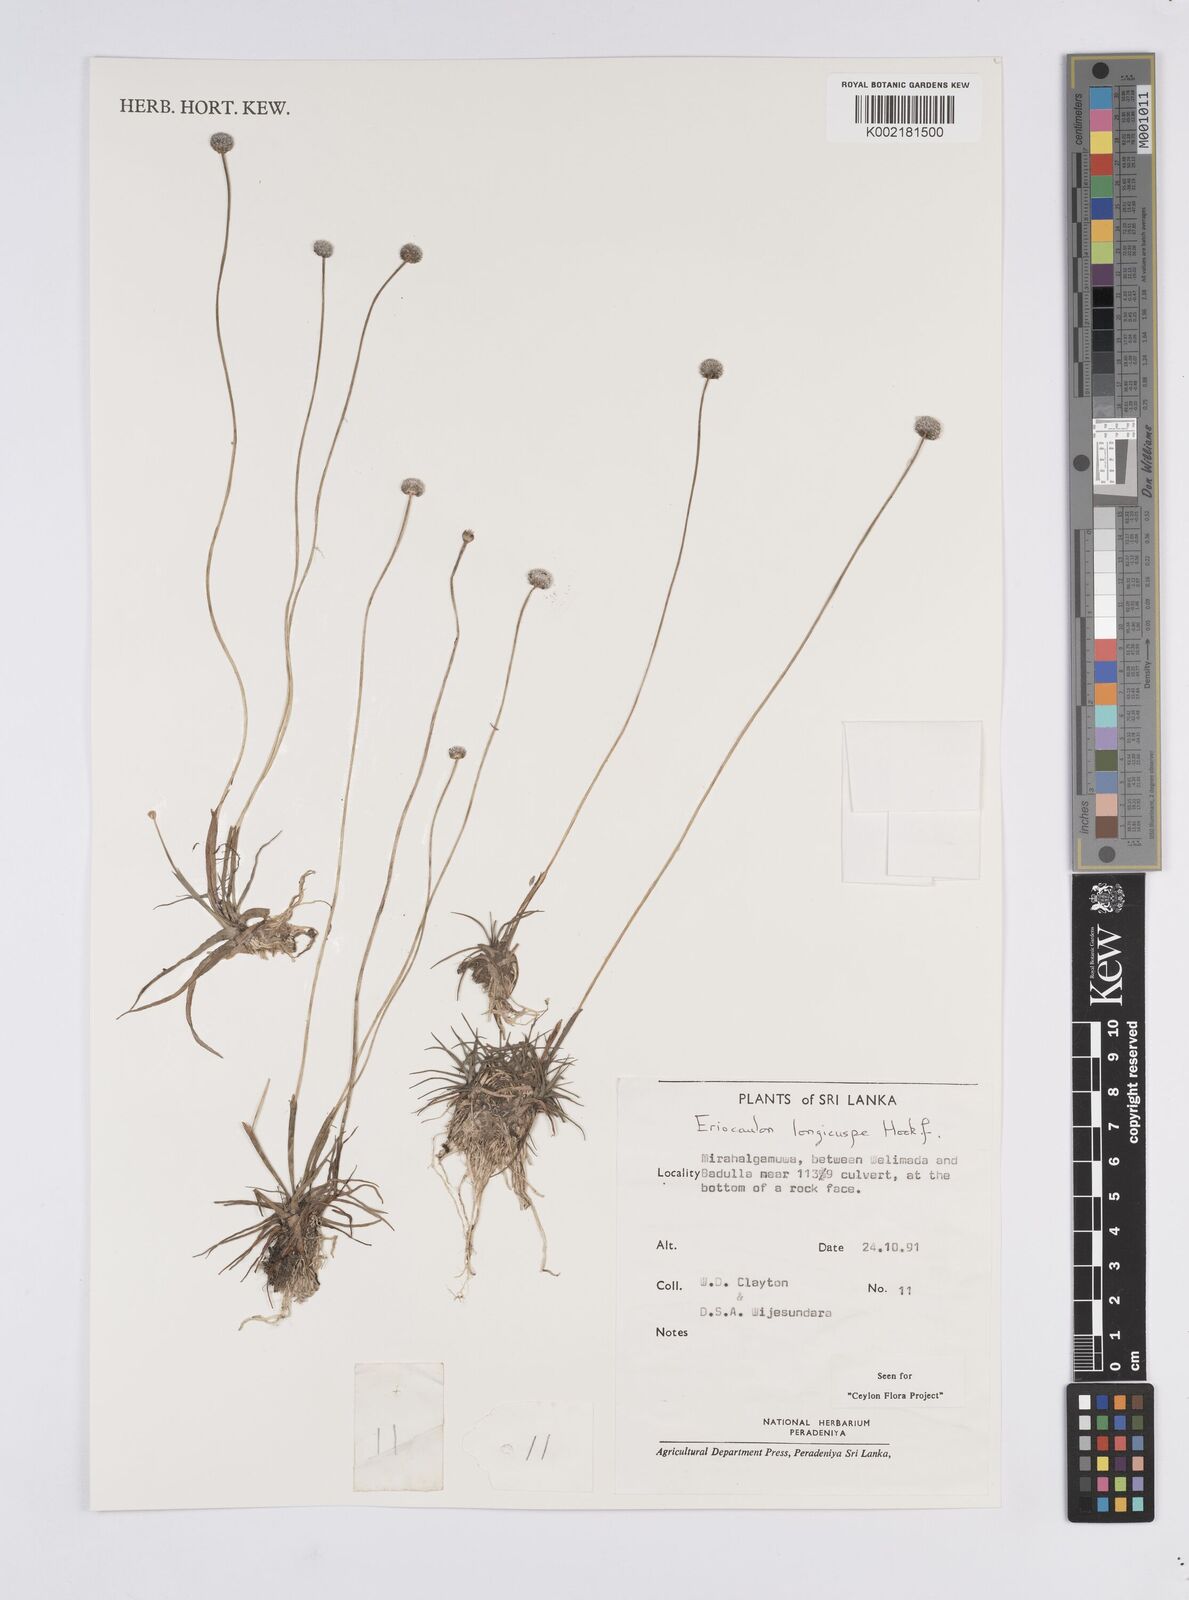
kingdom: Plantae
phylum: Tracheophyta
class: Liliopsida
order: Poales
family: Eriocaulaceae
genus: Eriocaulon
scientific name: Eriocaulon longicuspe
